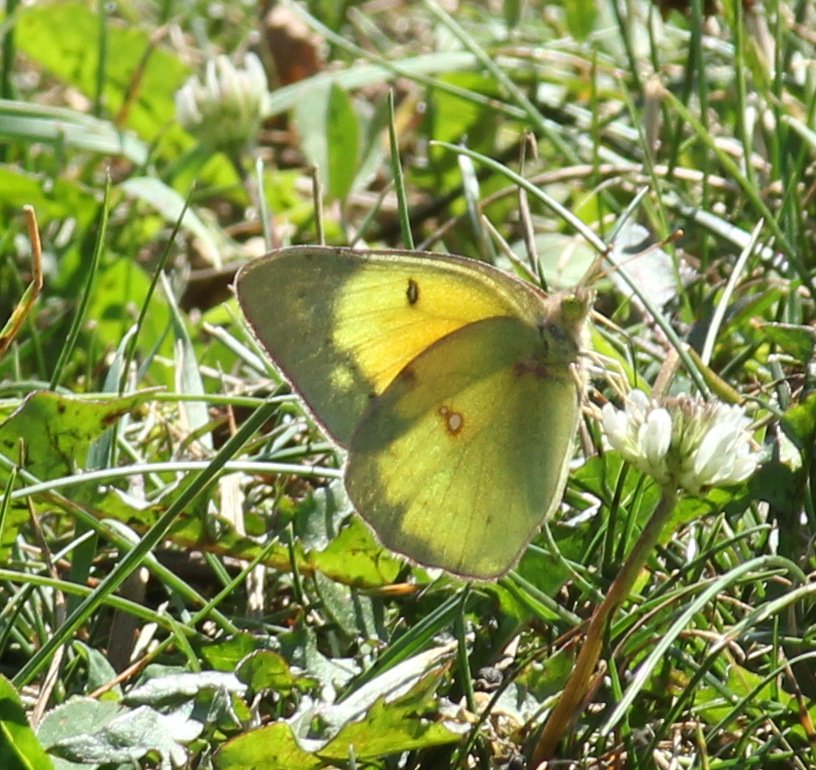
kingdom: Animalia
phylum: Arthropoda
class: Insecta
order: Lepidoptera
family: Pieridae
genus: Colias
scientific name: Colias eurytheme
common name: Orange Sulphur
